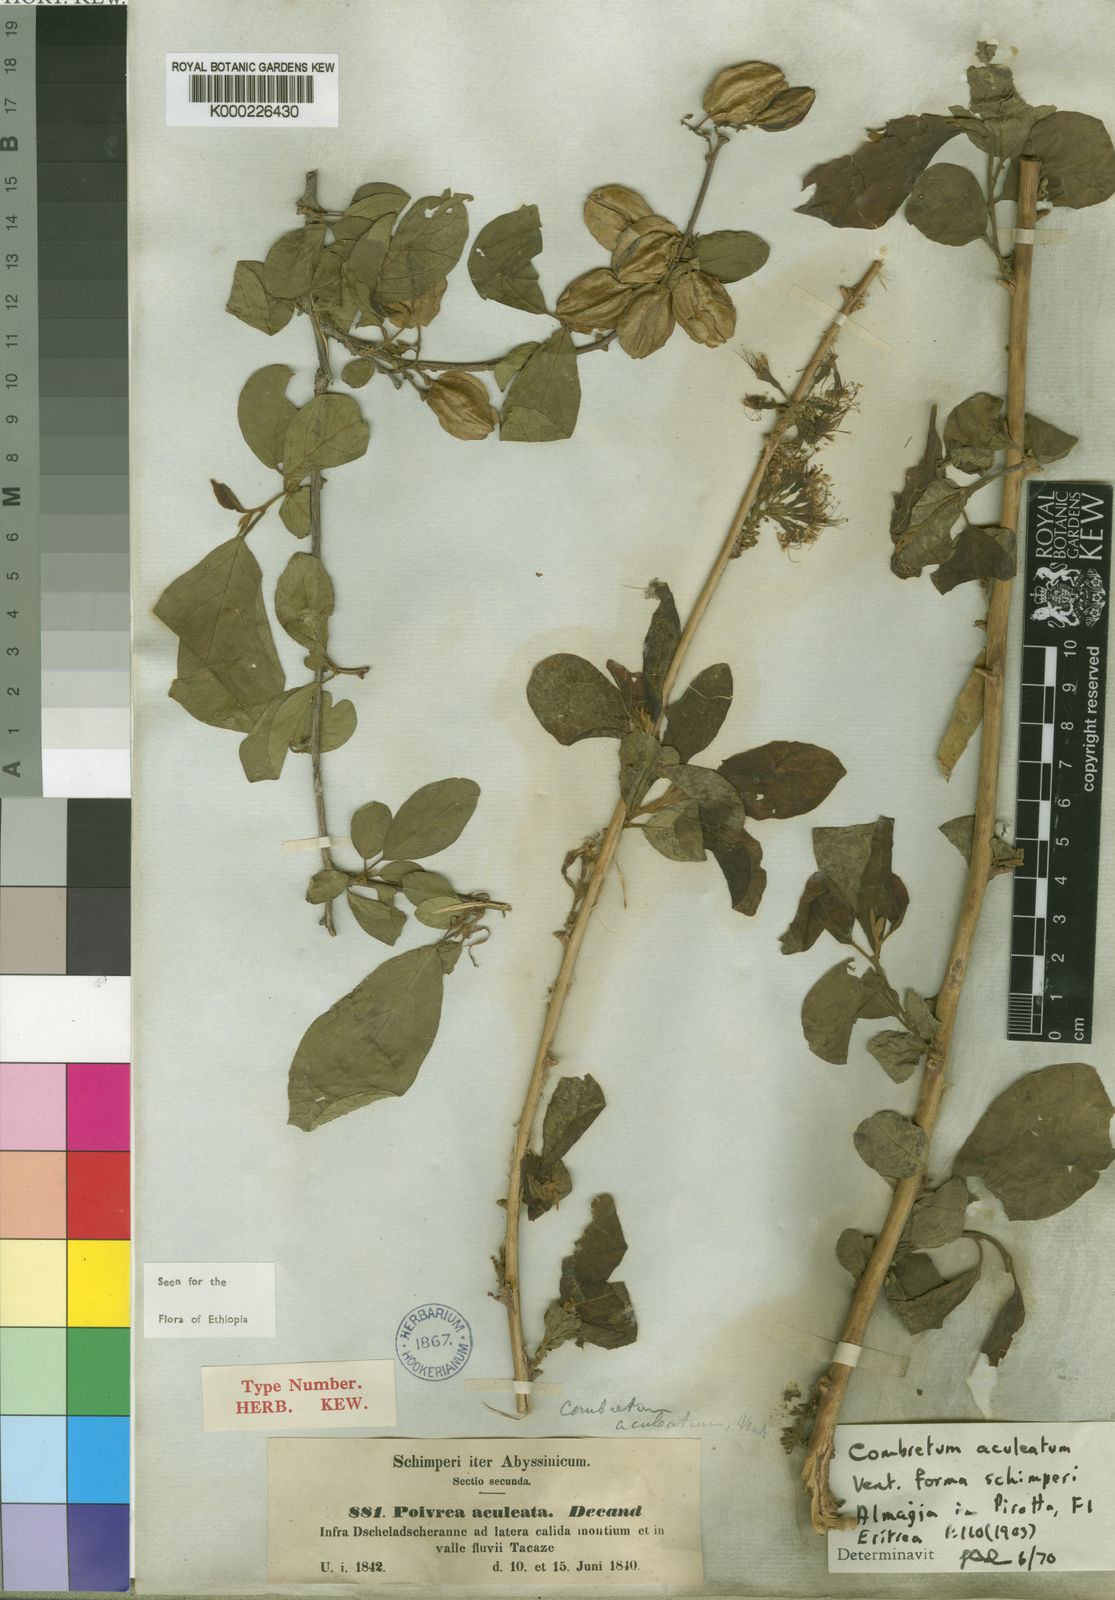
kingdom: Plantae
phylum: Tracheophyta
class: Magnoliopsida
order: Myrtales
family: Combretaceae
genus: Combretum
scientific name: Combretum aculeatum
